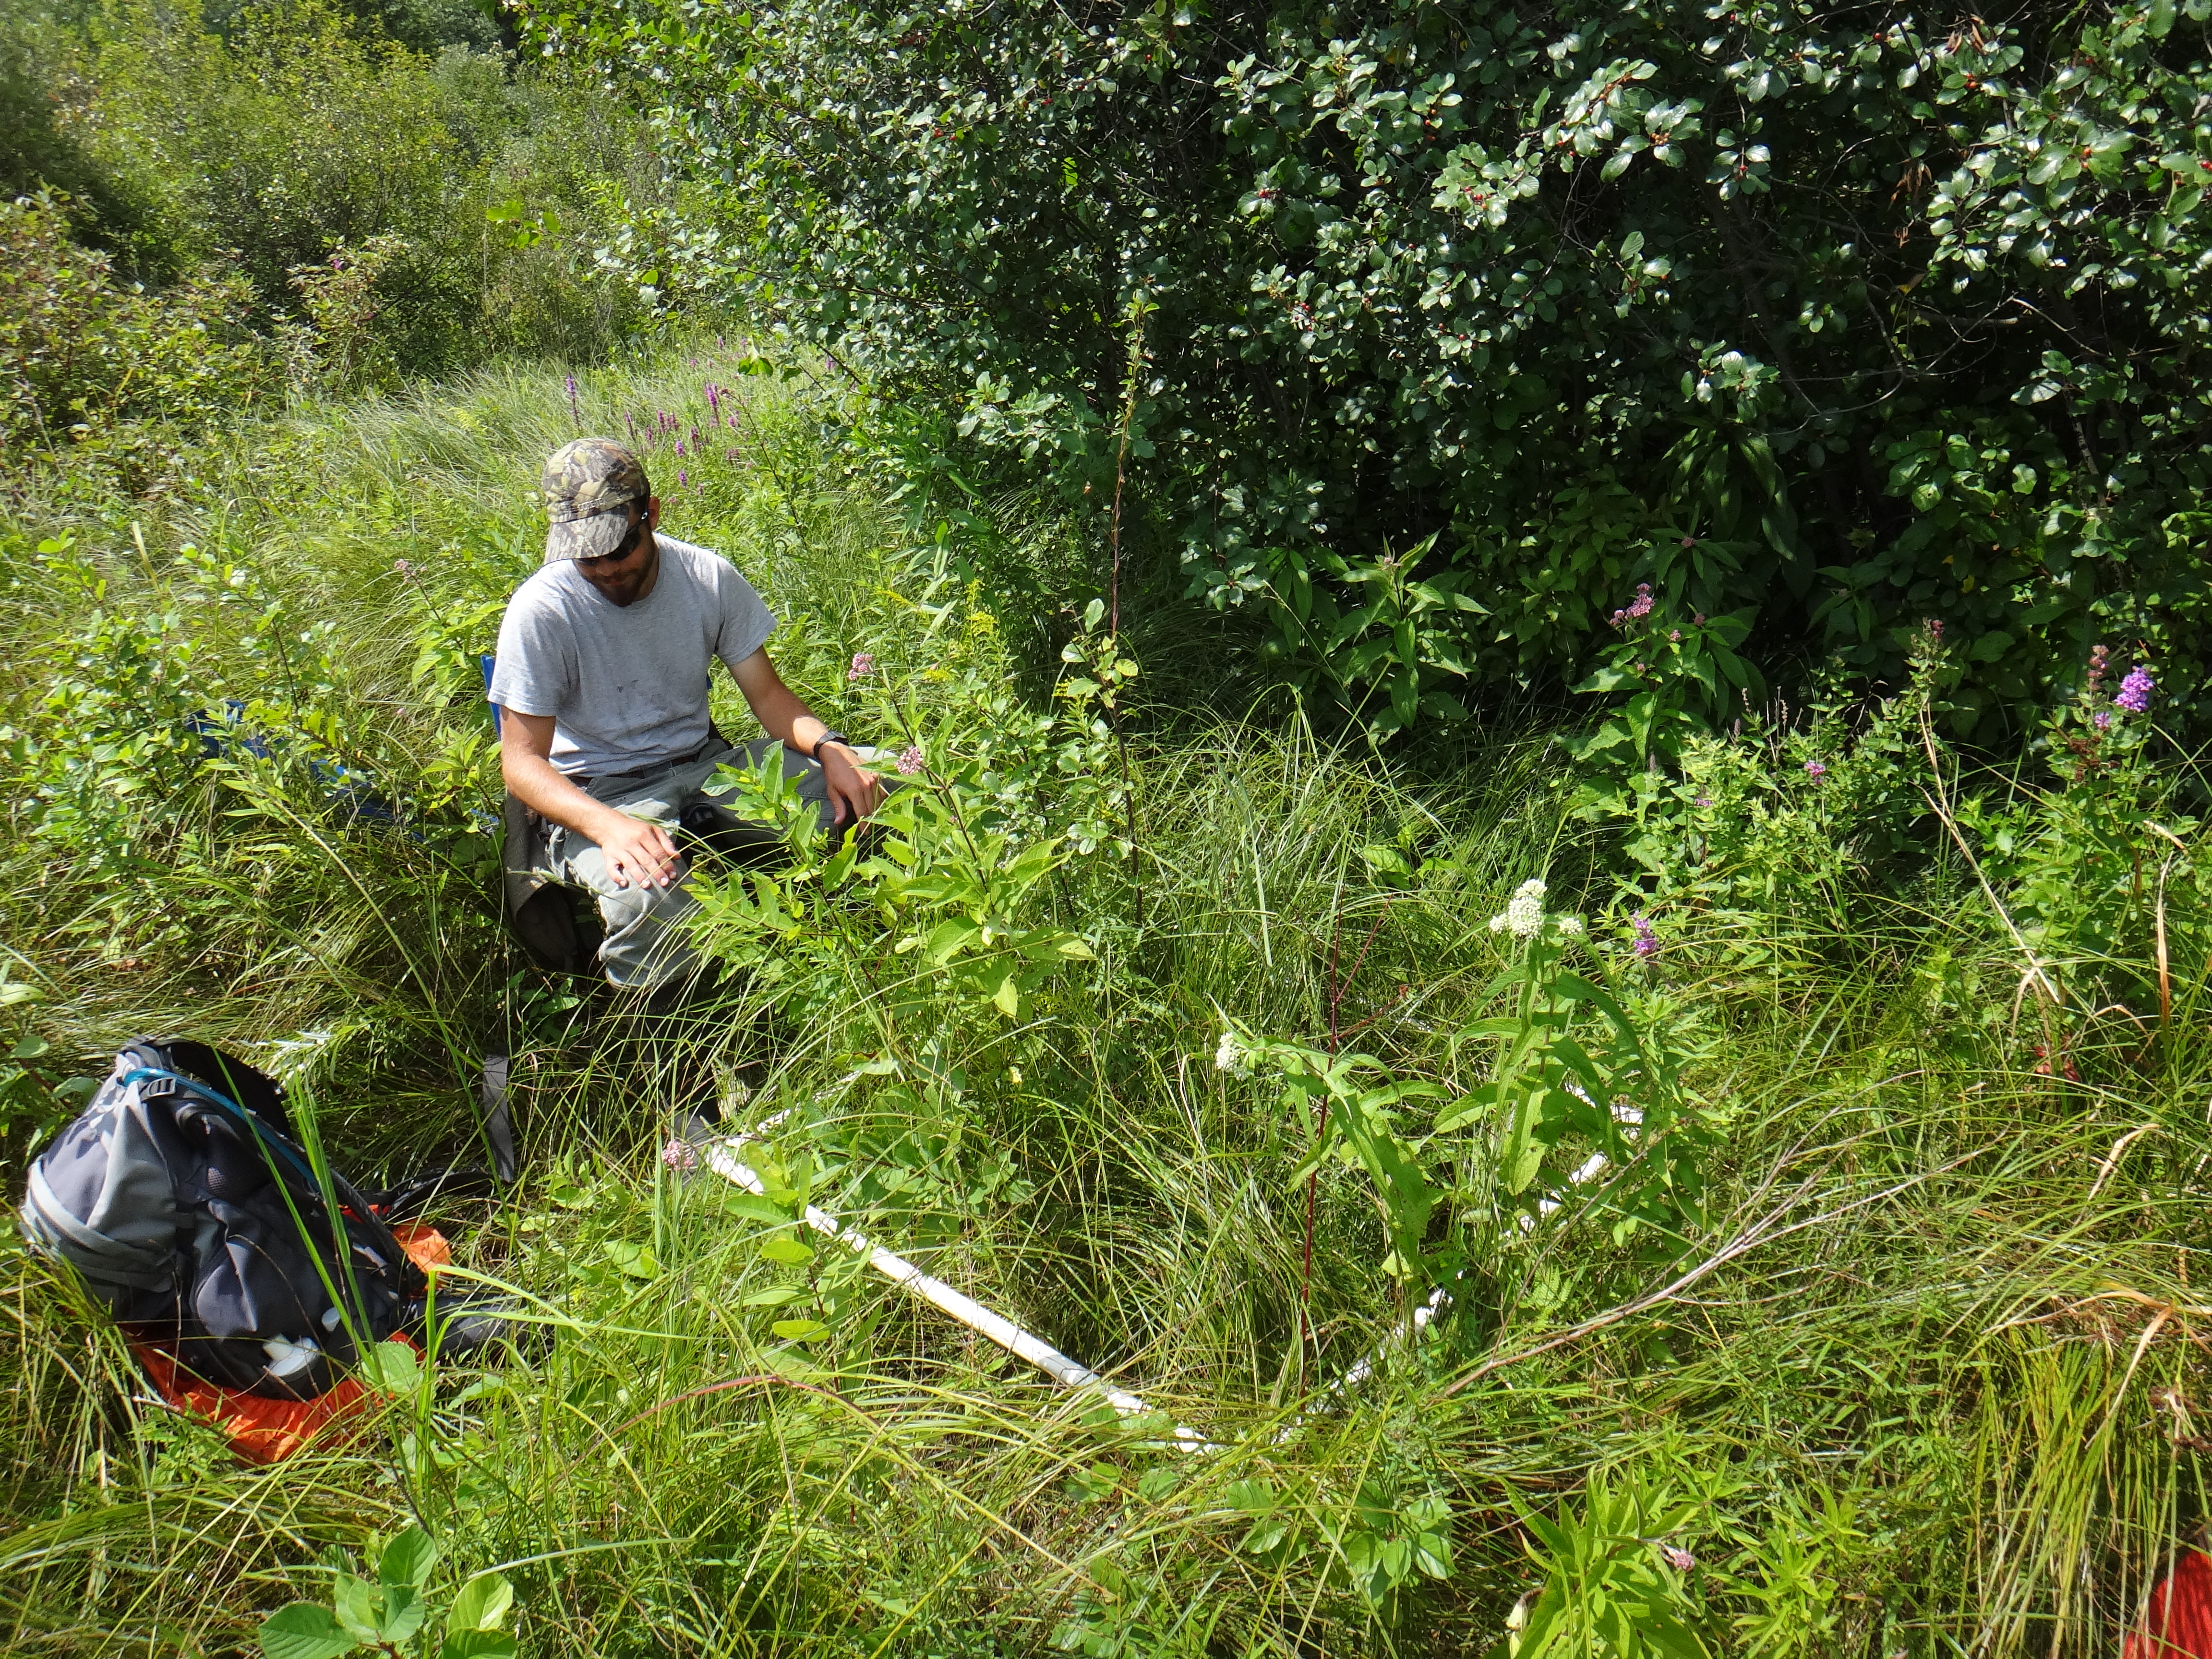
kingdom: Plantae
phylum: Tracheophyta
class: Liliopsida
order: Poales
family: Poaceae
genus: Muhlenbergia
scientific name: Muhlenbergia glomerata
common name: Bog muhly
